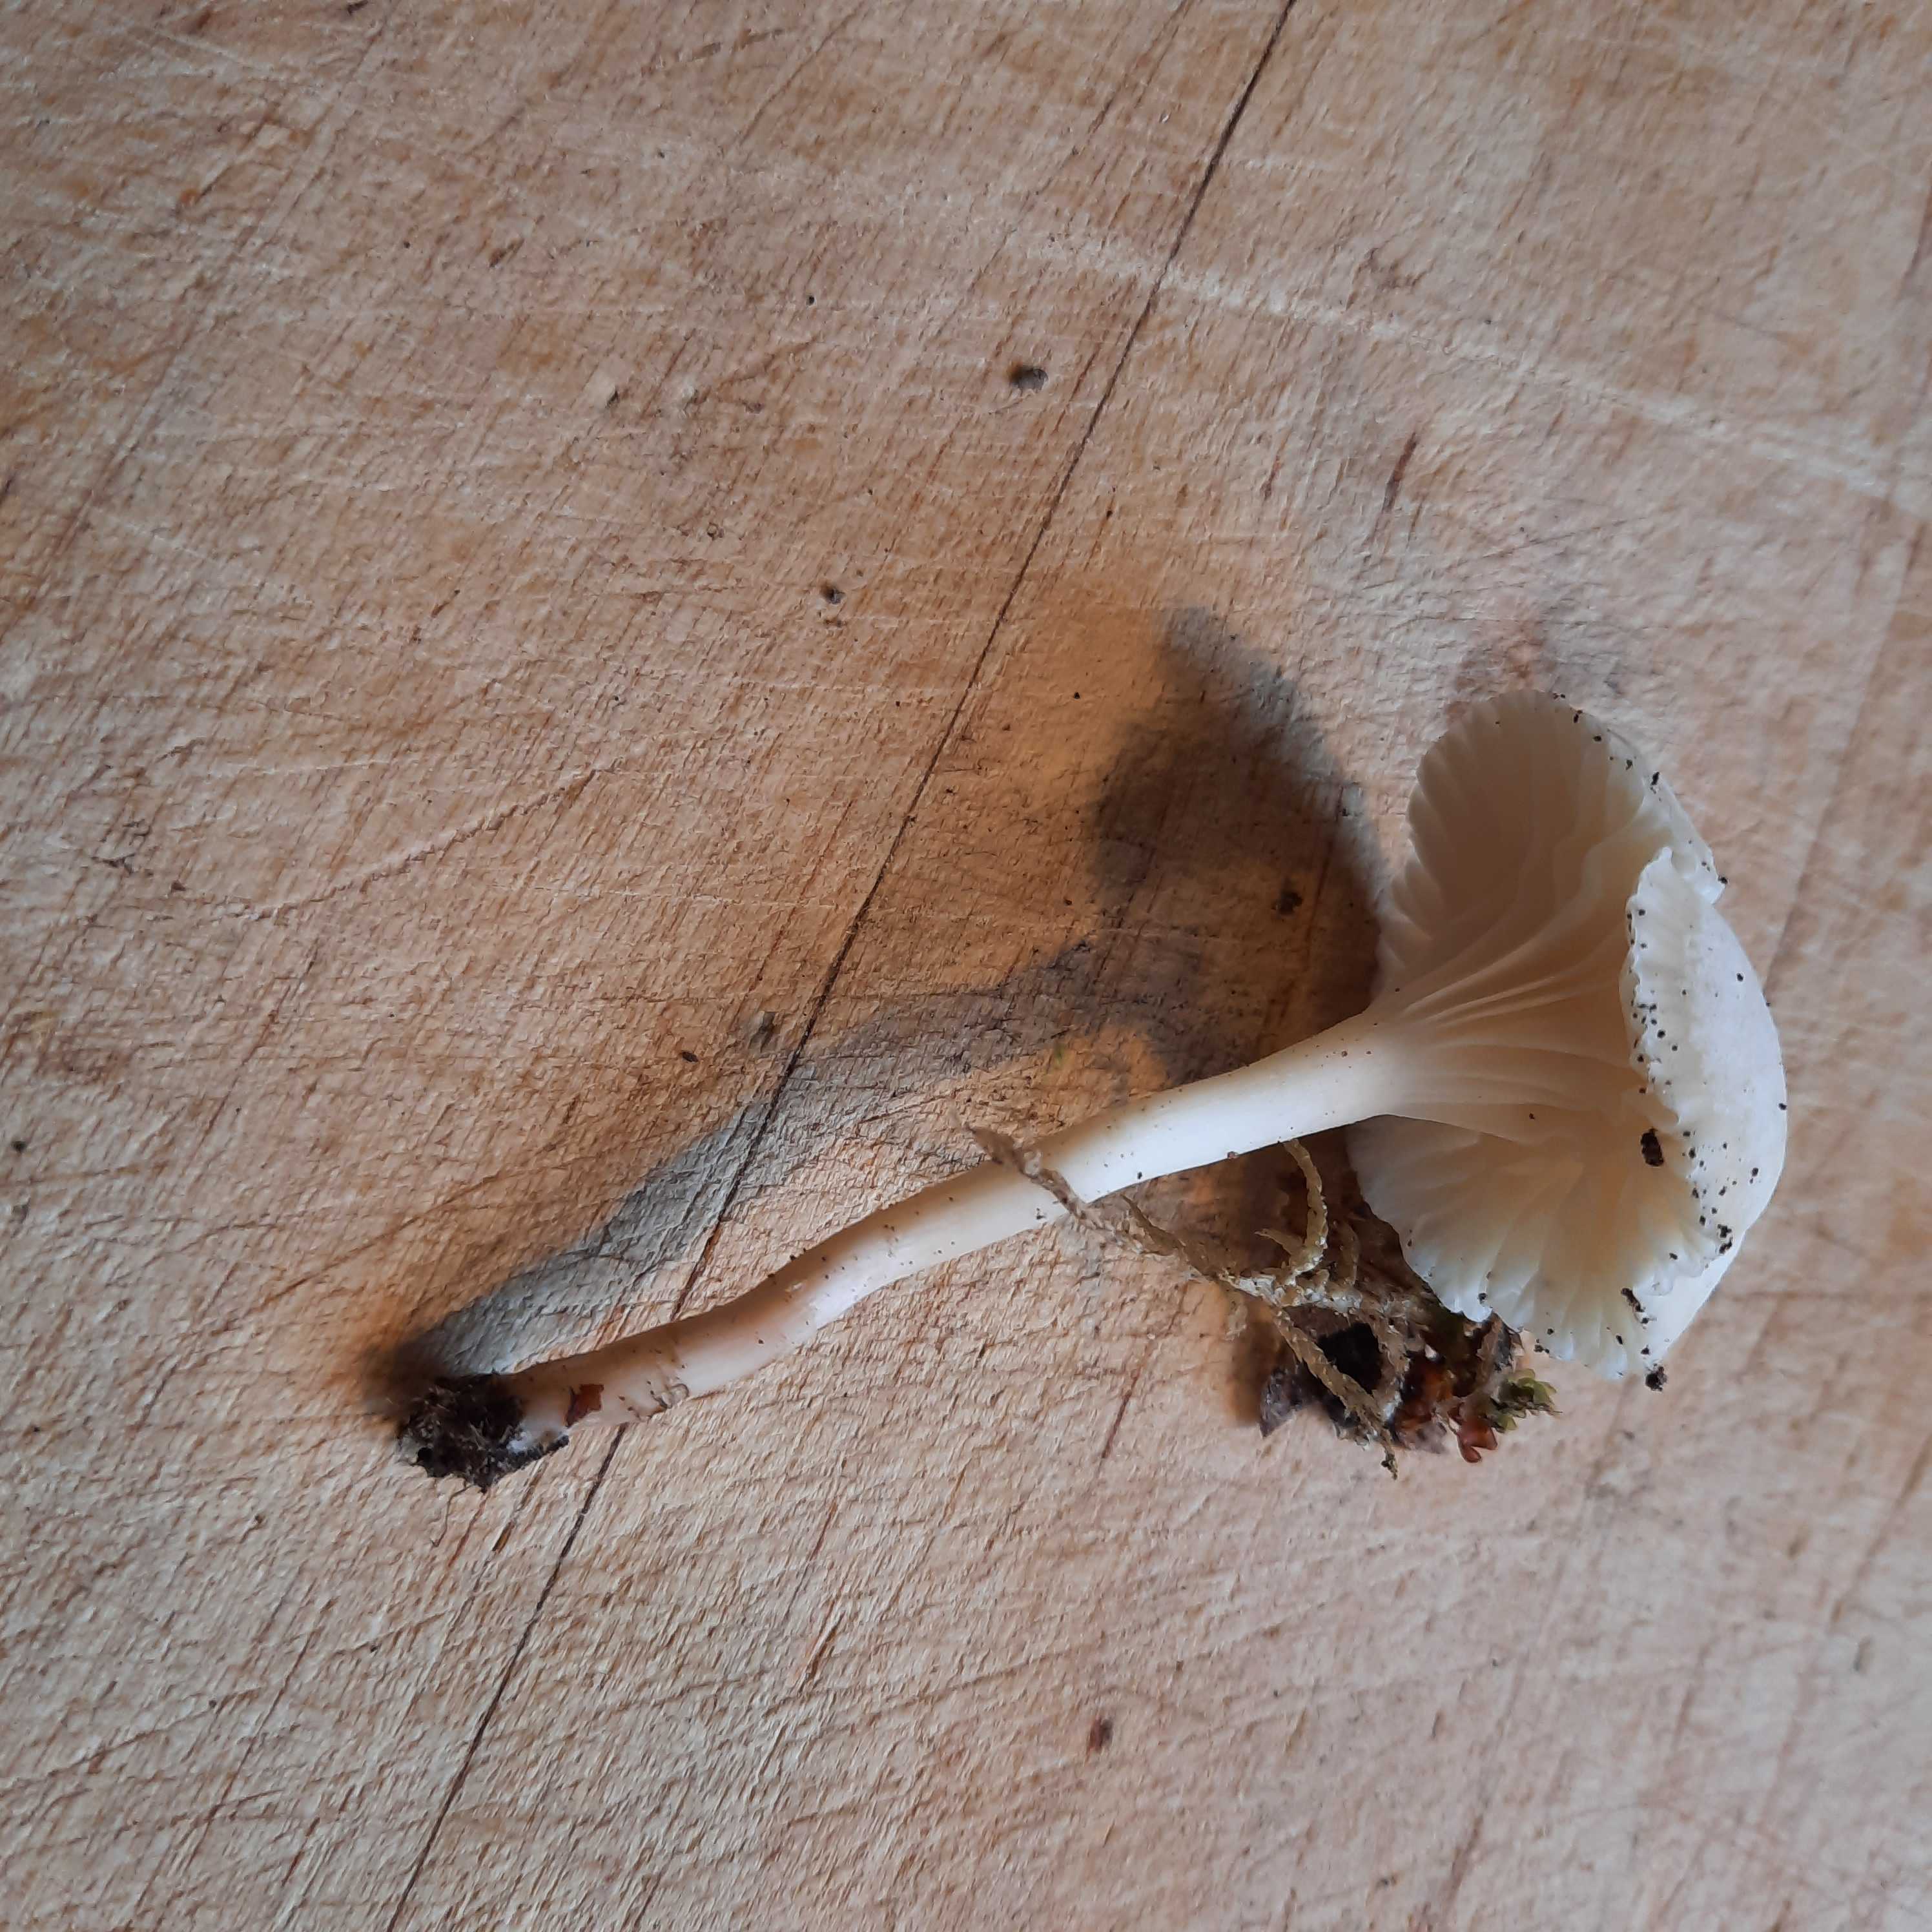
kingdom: Fungi
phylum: Basidiomycota
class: Agaricomycetes
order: Agaricales
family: Hygrophoraceae
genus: Cuphophyllus
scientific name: Cuphophyllus virgineus
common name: snehvid vokshat
